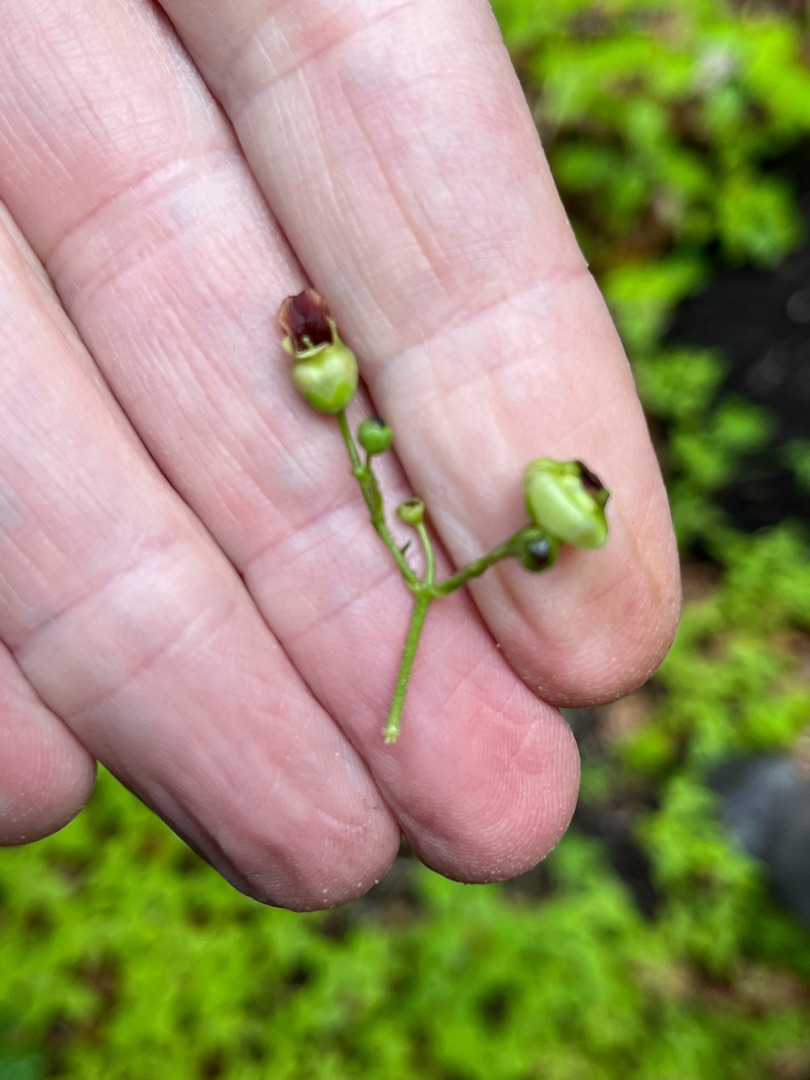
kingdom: Animalia
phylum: Arthropoda
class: Insecta
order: Diptera
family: Cecidomyiidae
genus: Contarinia
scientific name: Contarinia scrophulariae
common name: Brunrodsgalmyg
